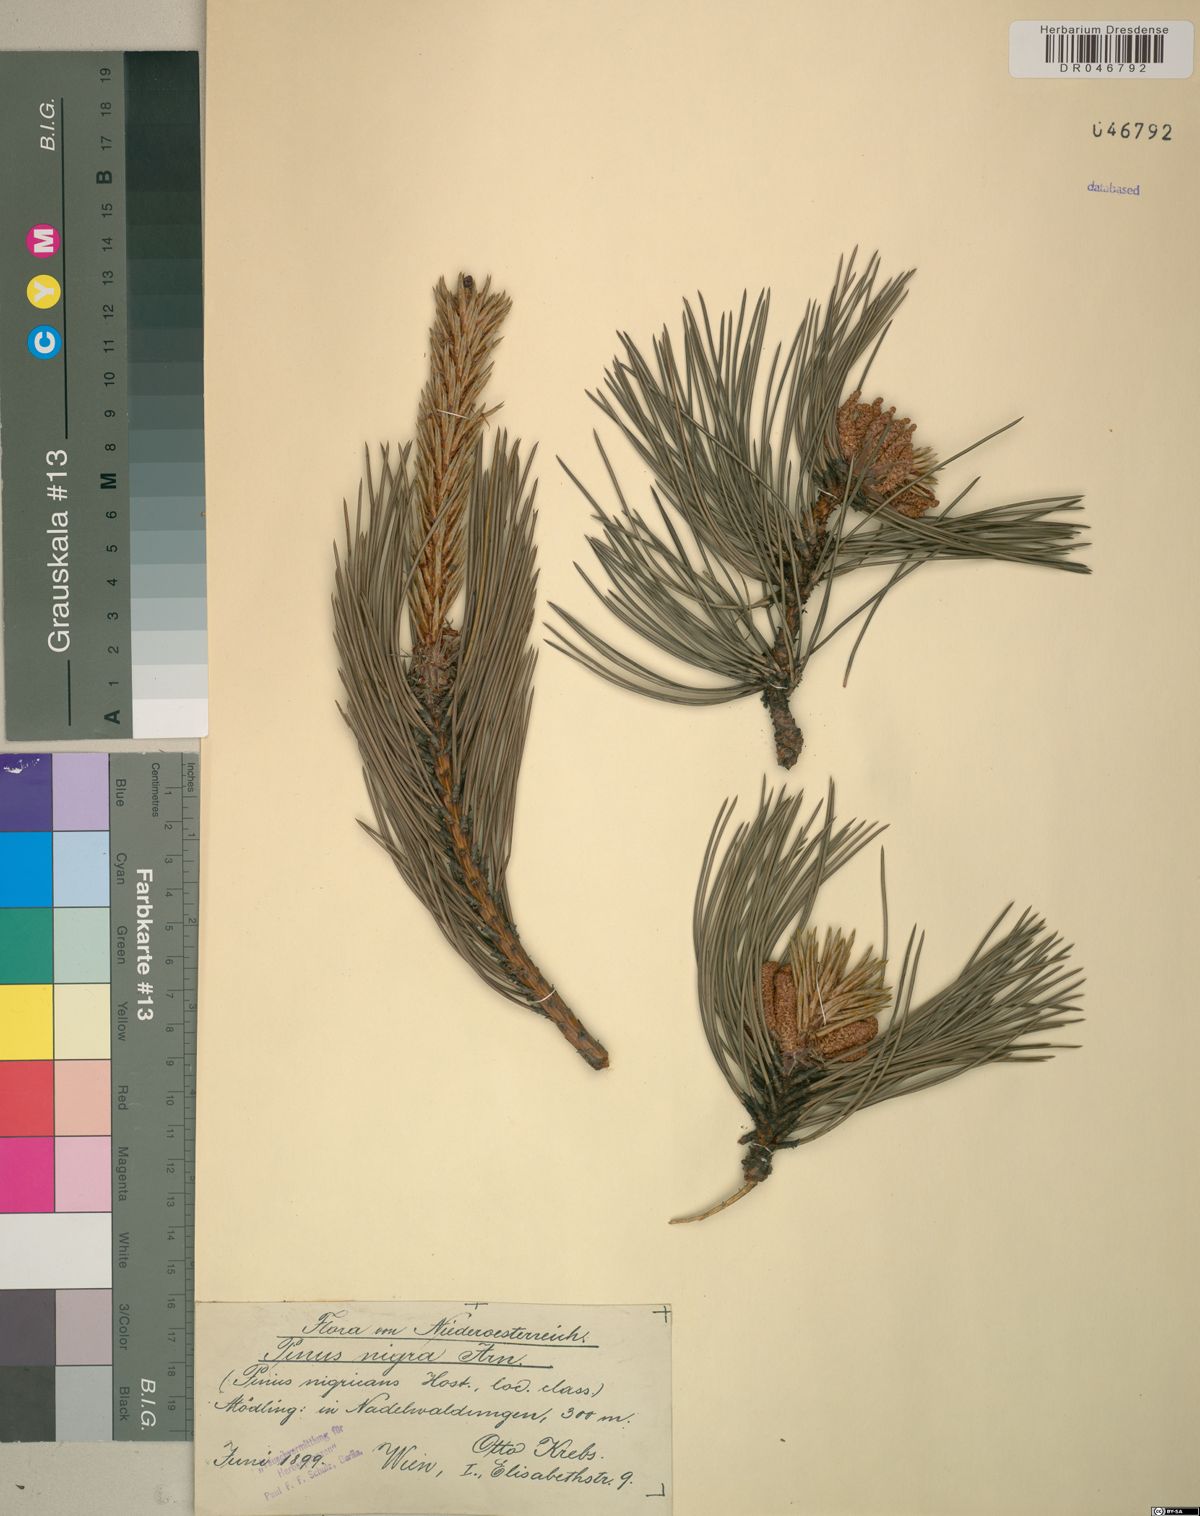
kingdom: Plantae
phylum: Tracheophyta
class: Pinopsida
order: Pinales
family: Pinaceae
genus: Pinus
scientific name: Pinus nigra
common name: Austrian pine
